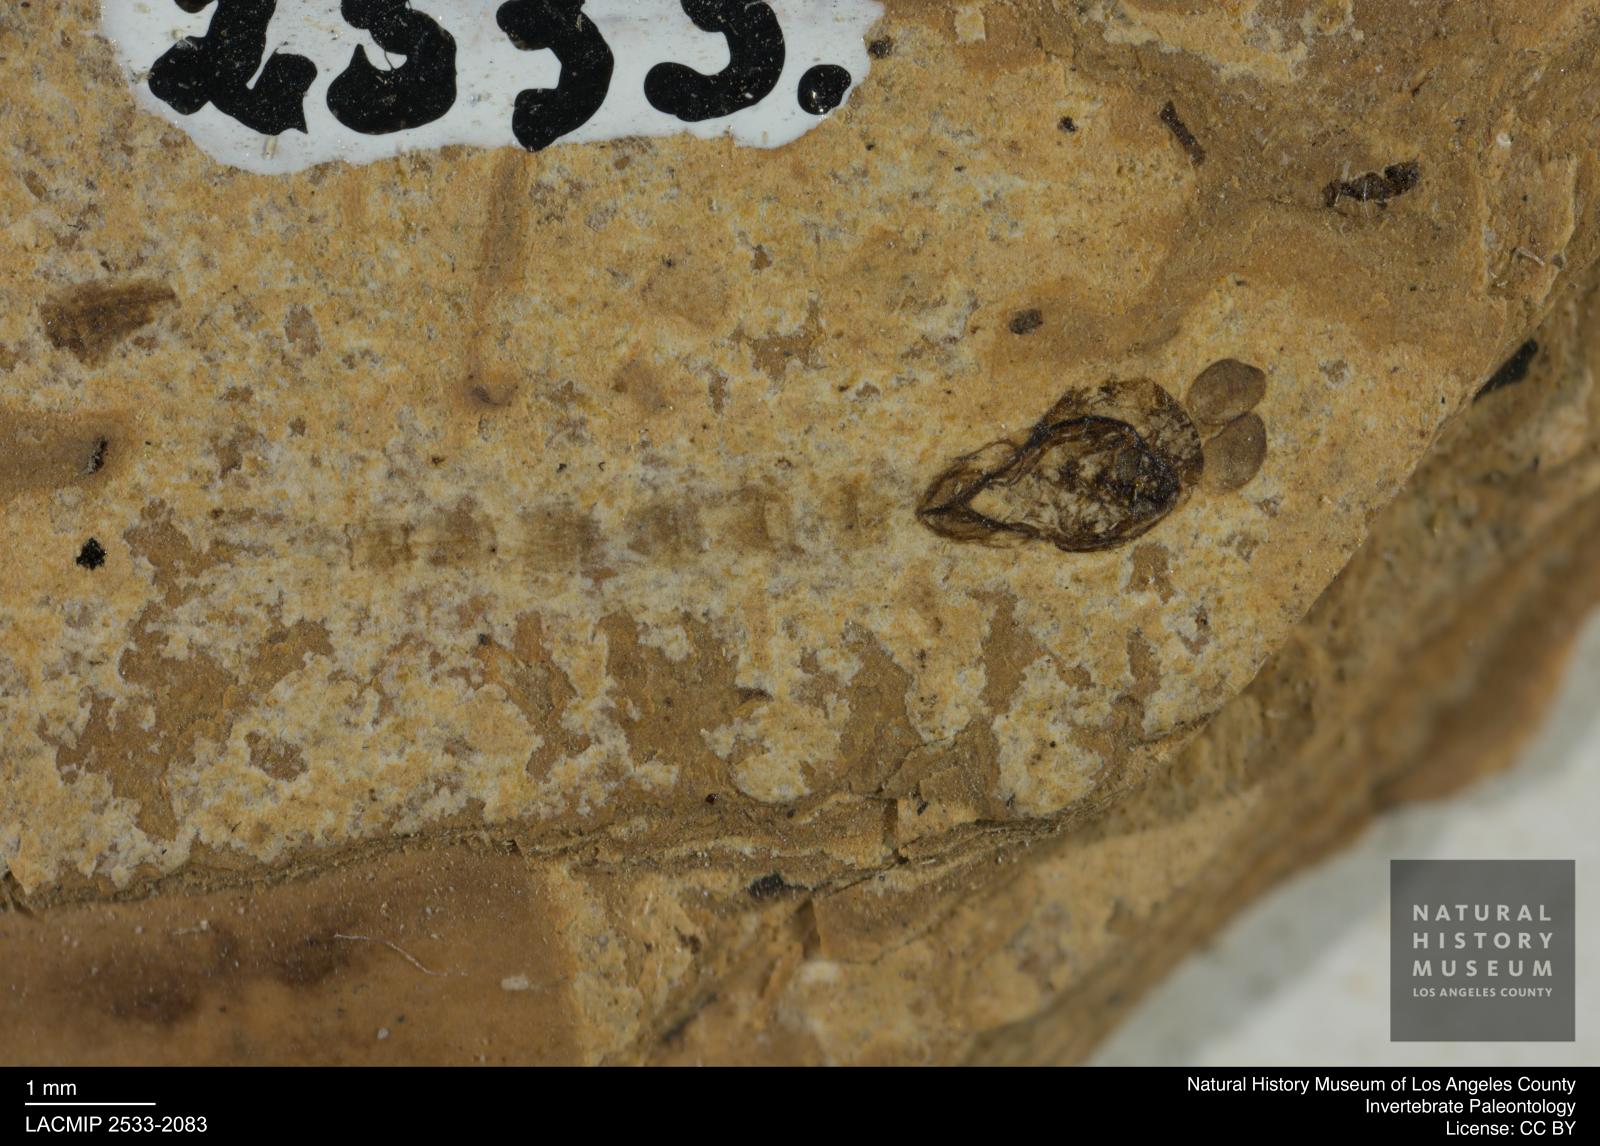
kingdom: Animalia
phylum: Arthropoda
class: Insecta
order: Diptera
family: Chironomidae
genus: Pelopiina
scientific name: Pelopiina
